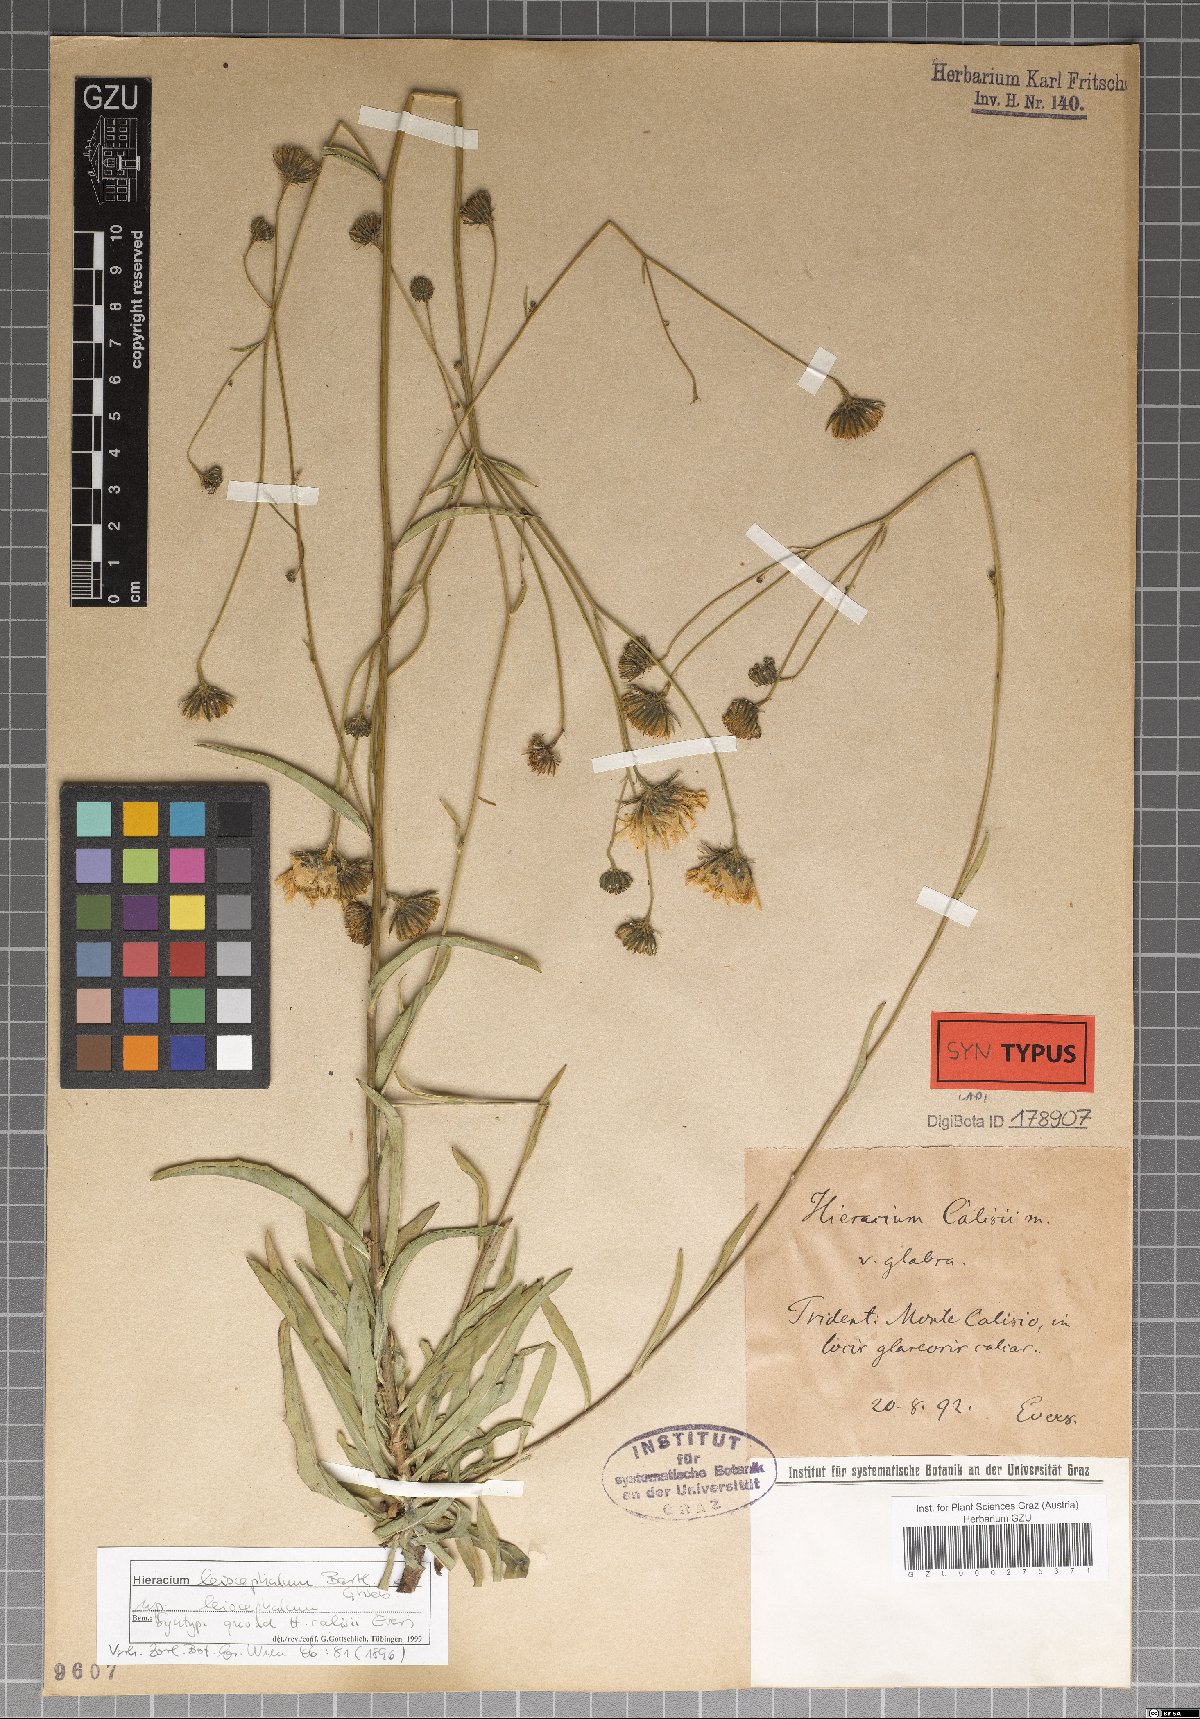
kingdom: Plantae
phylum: Tracheophyta
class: Magnoliopsida
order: Asterales
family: Asteraceae
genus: Hieracium
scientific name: Hieracium leiocephalum
